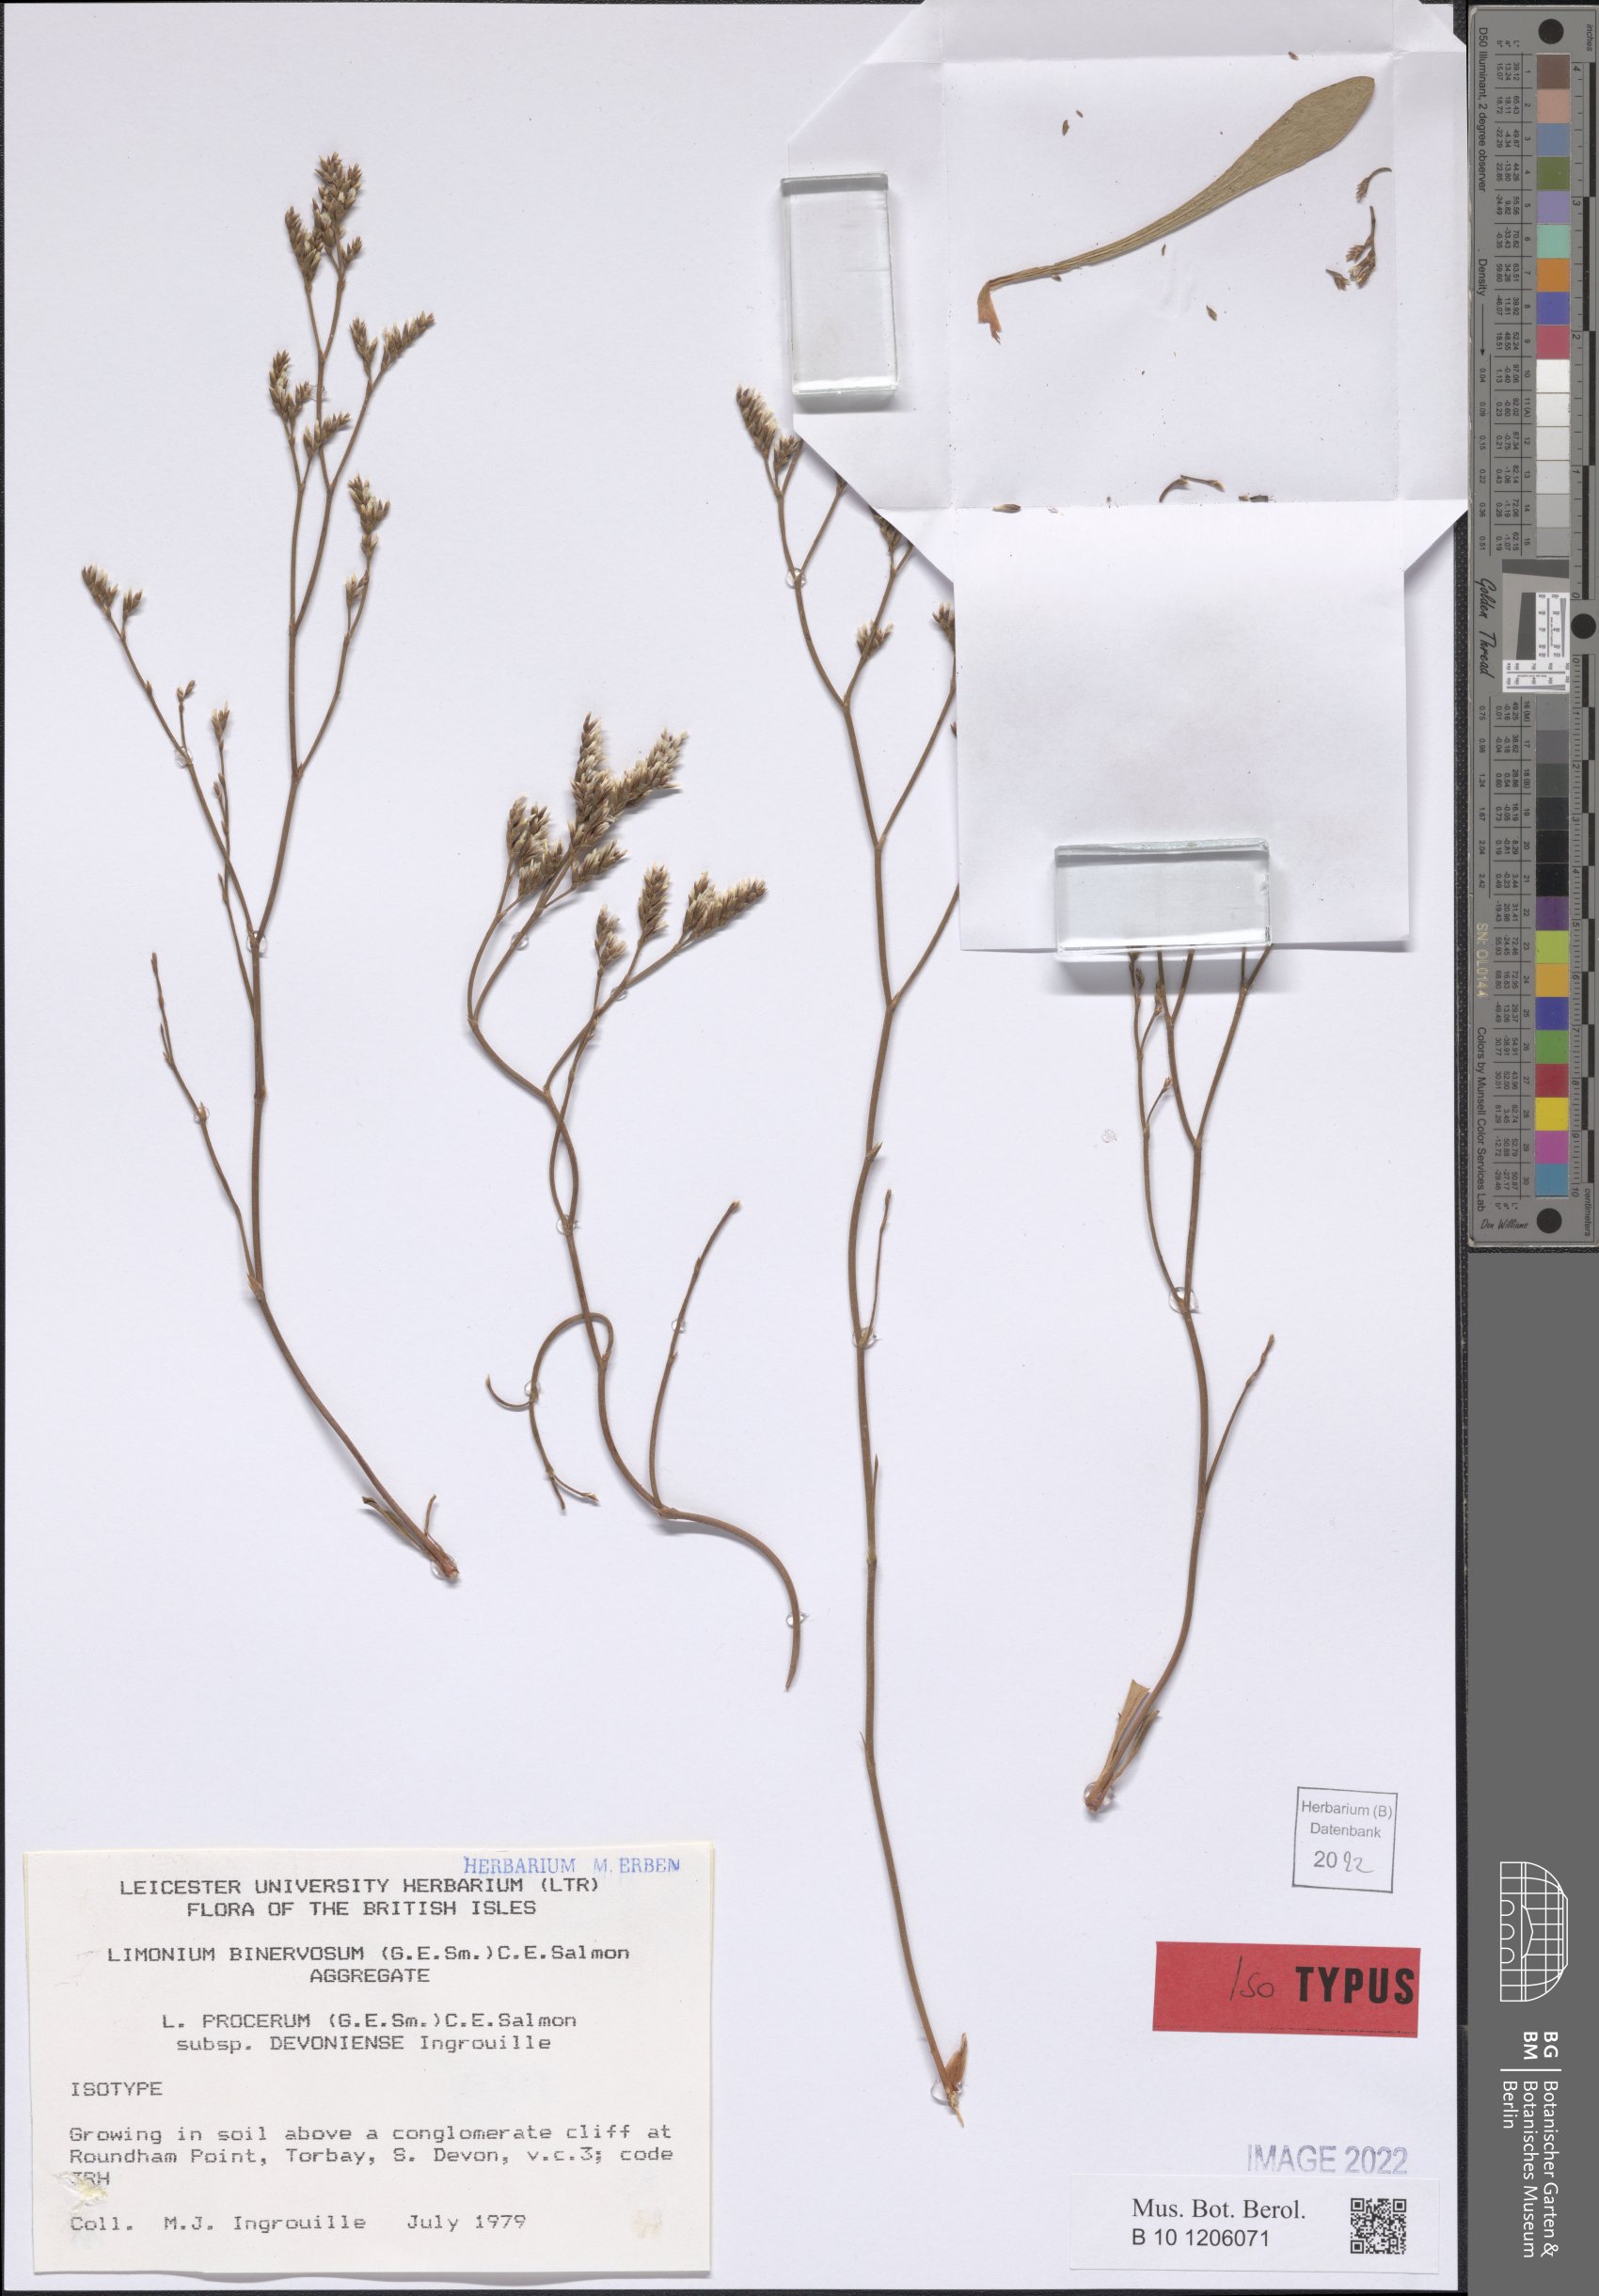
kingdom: Plantae
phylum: Tracheophyta
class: Magnoliopsida
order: Caryophyllales
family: Plumbaginaceae
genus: Limonium
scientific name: Limonium devoniense
